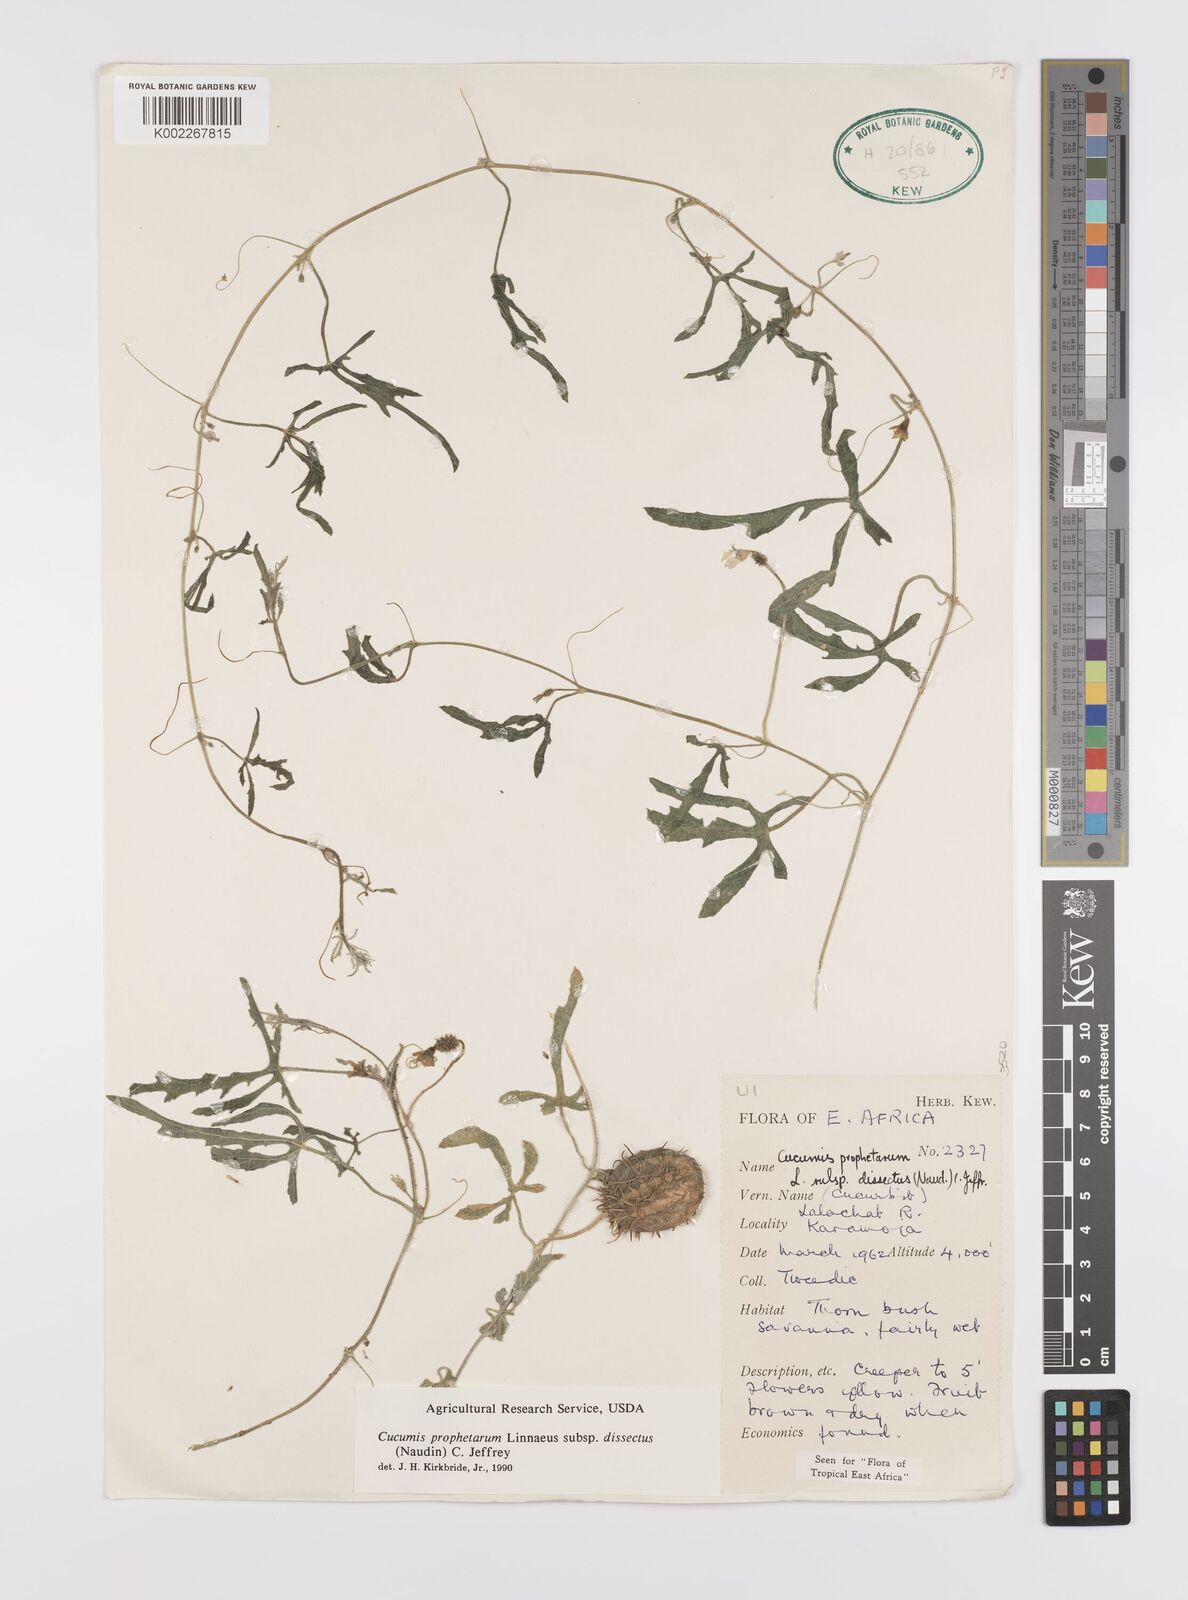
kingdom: Plantae
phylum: Tracheophyta
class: Magnoliopsida
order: Cucurbitales
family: Cucurbitaceae
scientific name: Cucurbitaceae
